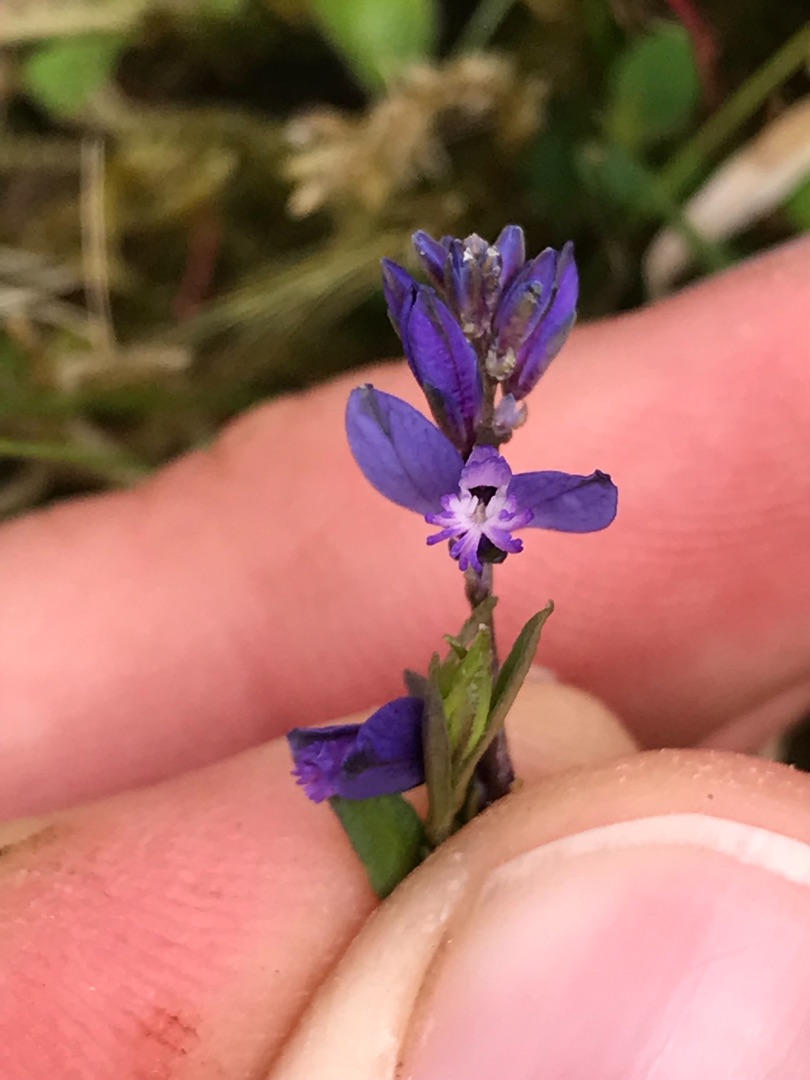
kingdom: Plantae
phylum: Tracheophyta
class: Magnoliopsida
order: Fabales
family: Polygalaceae
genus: Polygala
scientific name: Polygala serpyllifolia
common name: Spæd mælkeurt
